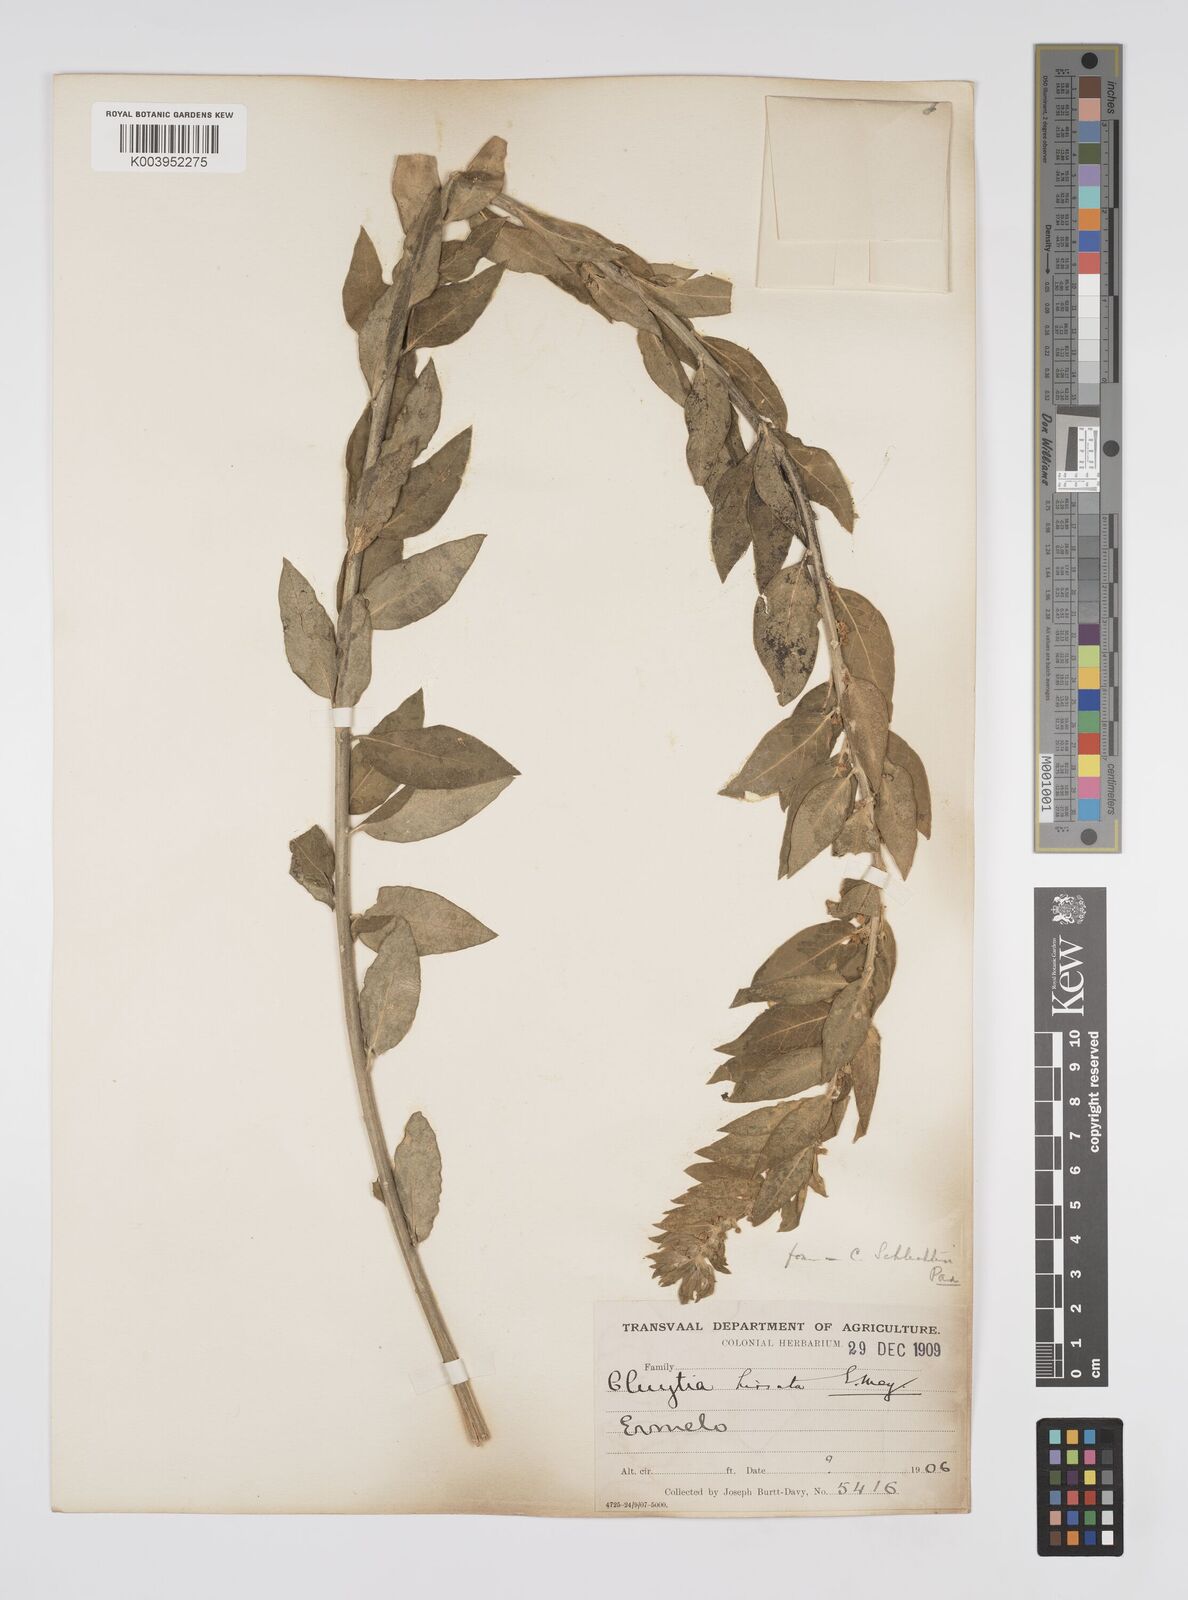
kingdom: Plantae
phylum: Tracheophyta
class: Magnoliopsida
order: Malpighiales
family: Peraceae
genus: Clutia
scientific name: Clutia affinis
